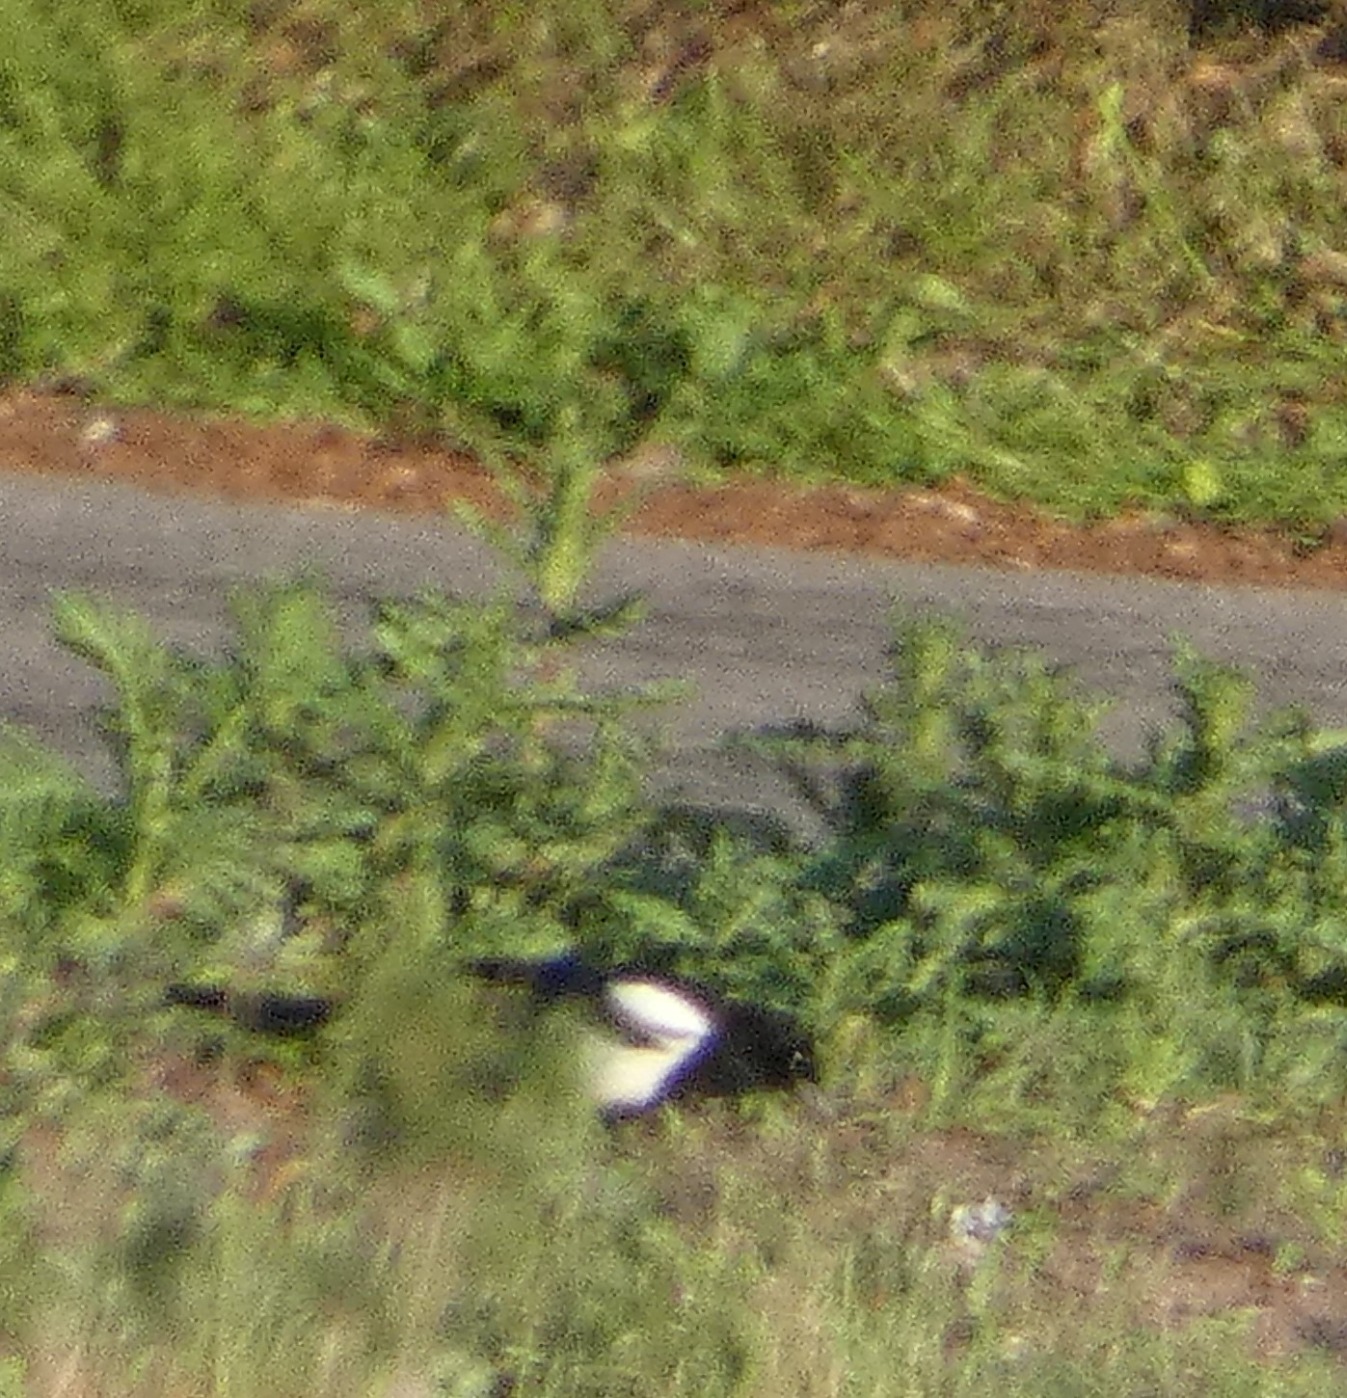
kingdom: Animalia
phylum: Chordata
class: Aves
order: Passeriformes
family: Corvidae
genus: Pica
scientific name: Pica pica
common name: Husskade
